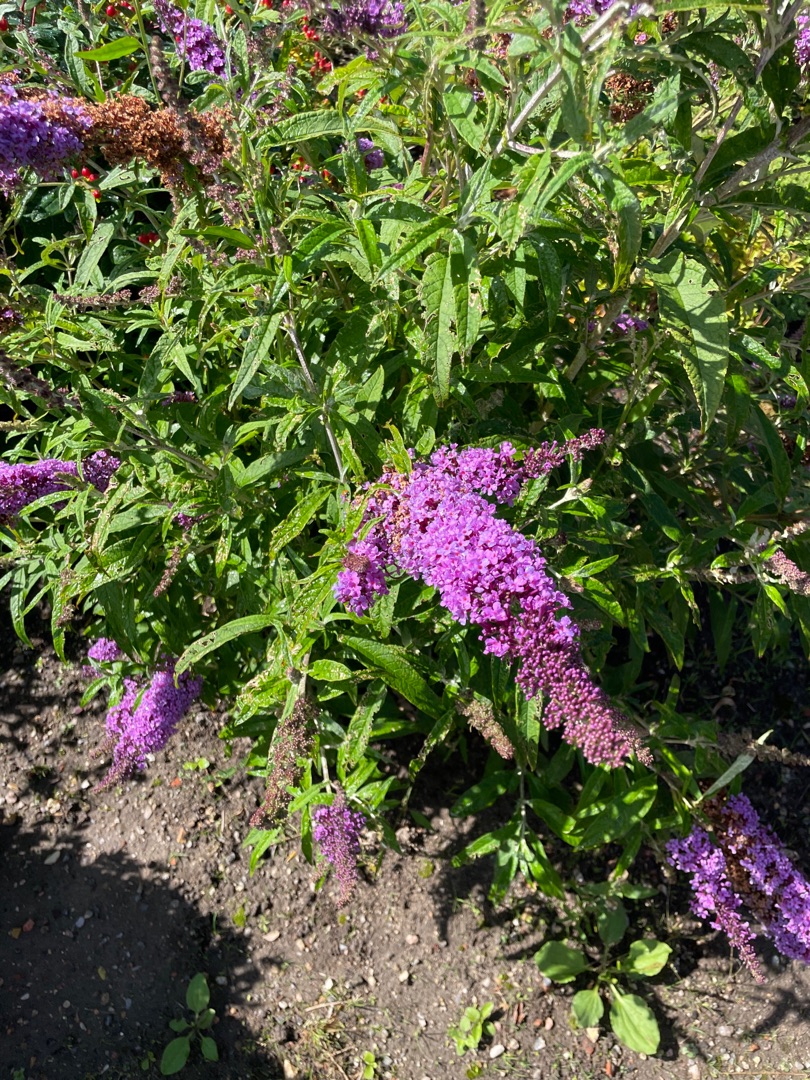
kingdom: Plantae
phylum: Tracheophyta
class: Magnoliopsida
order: Lamiales
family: Scrophulariaceae
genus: Buddleja
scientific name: Buddleja davidii
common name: Sommerfuglebusk
